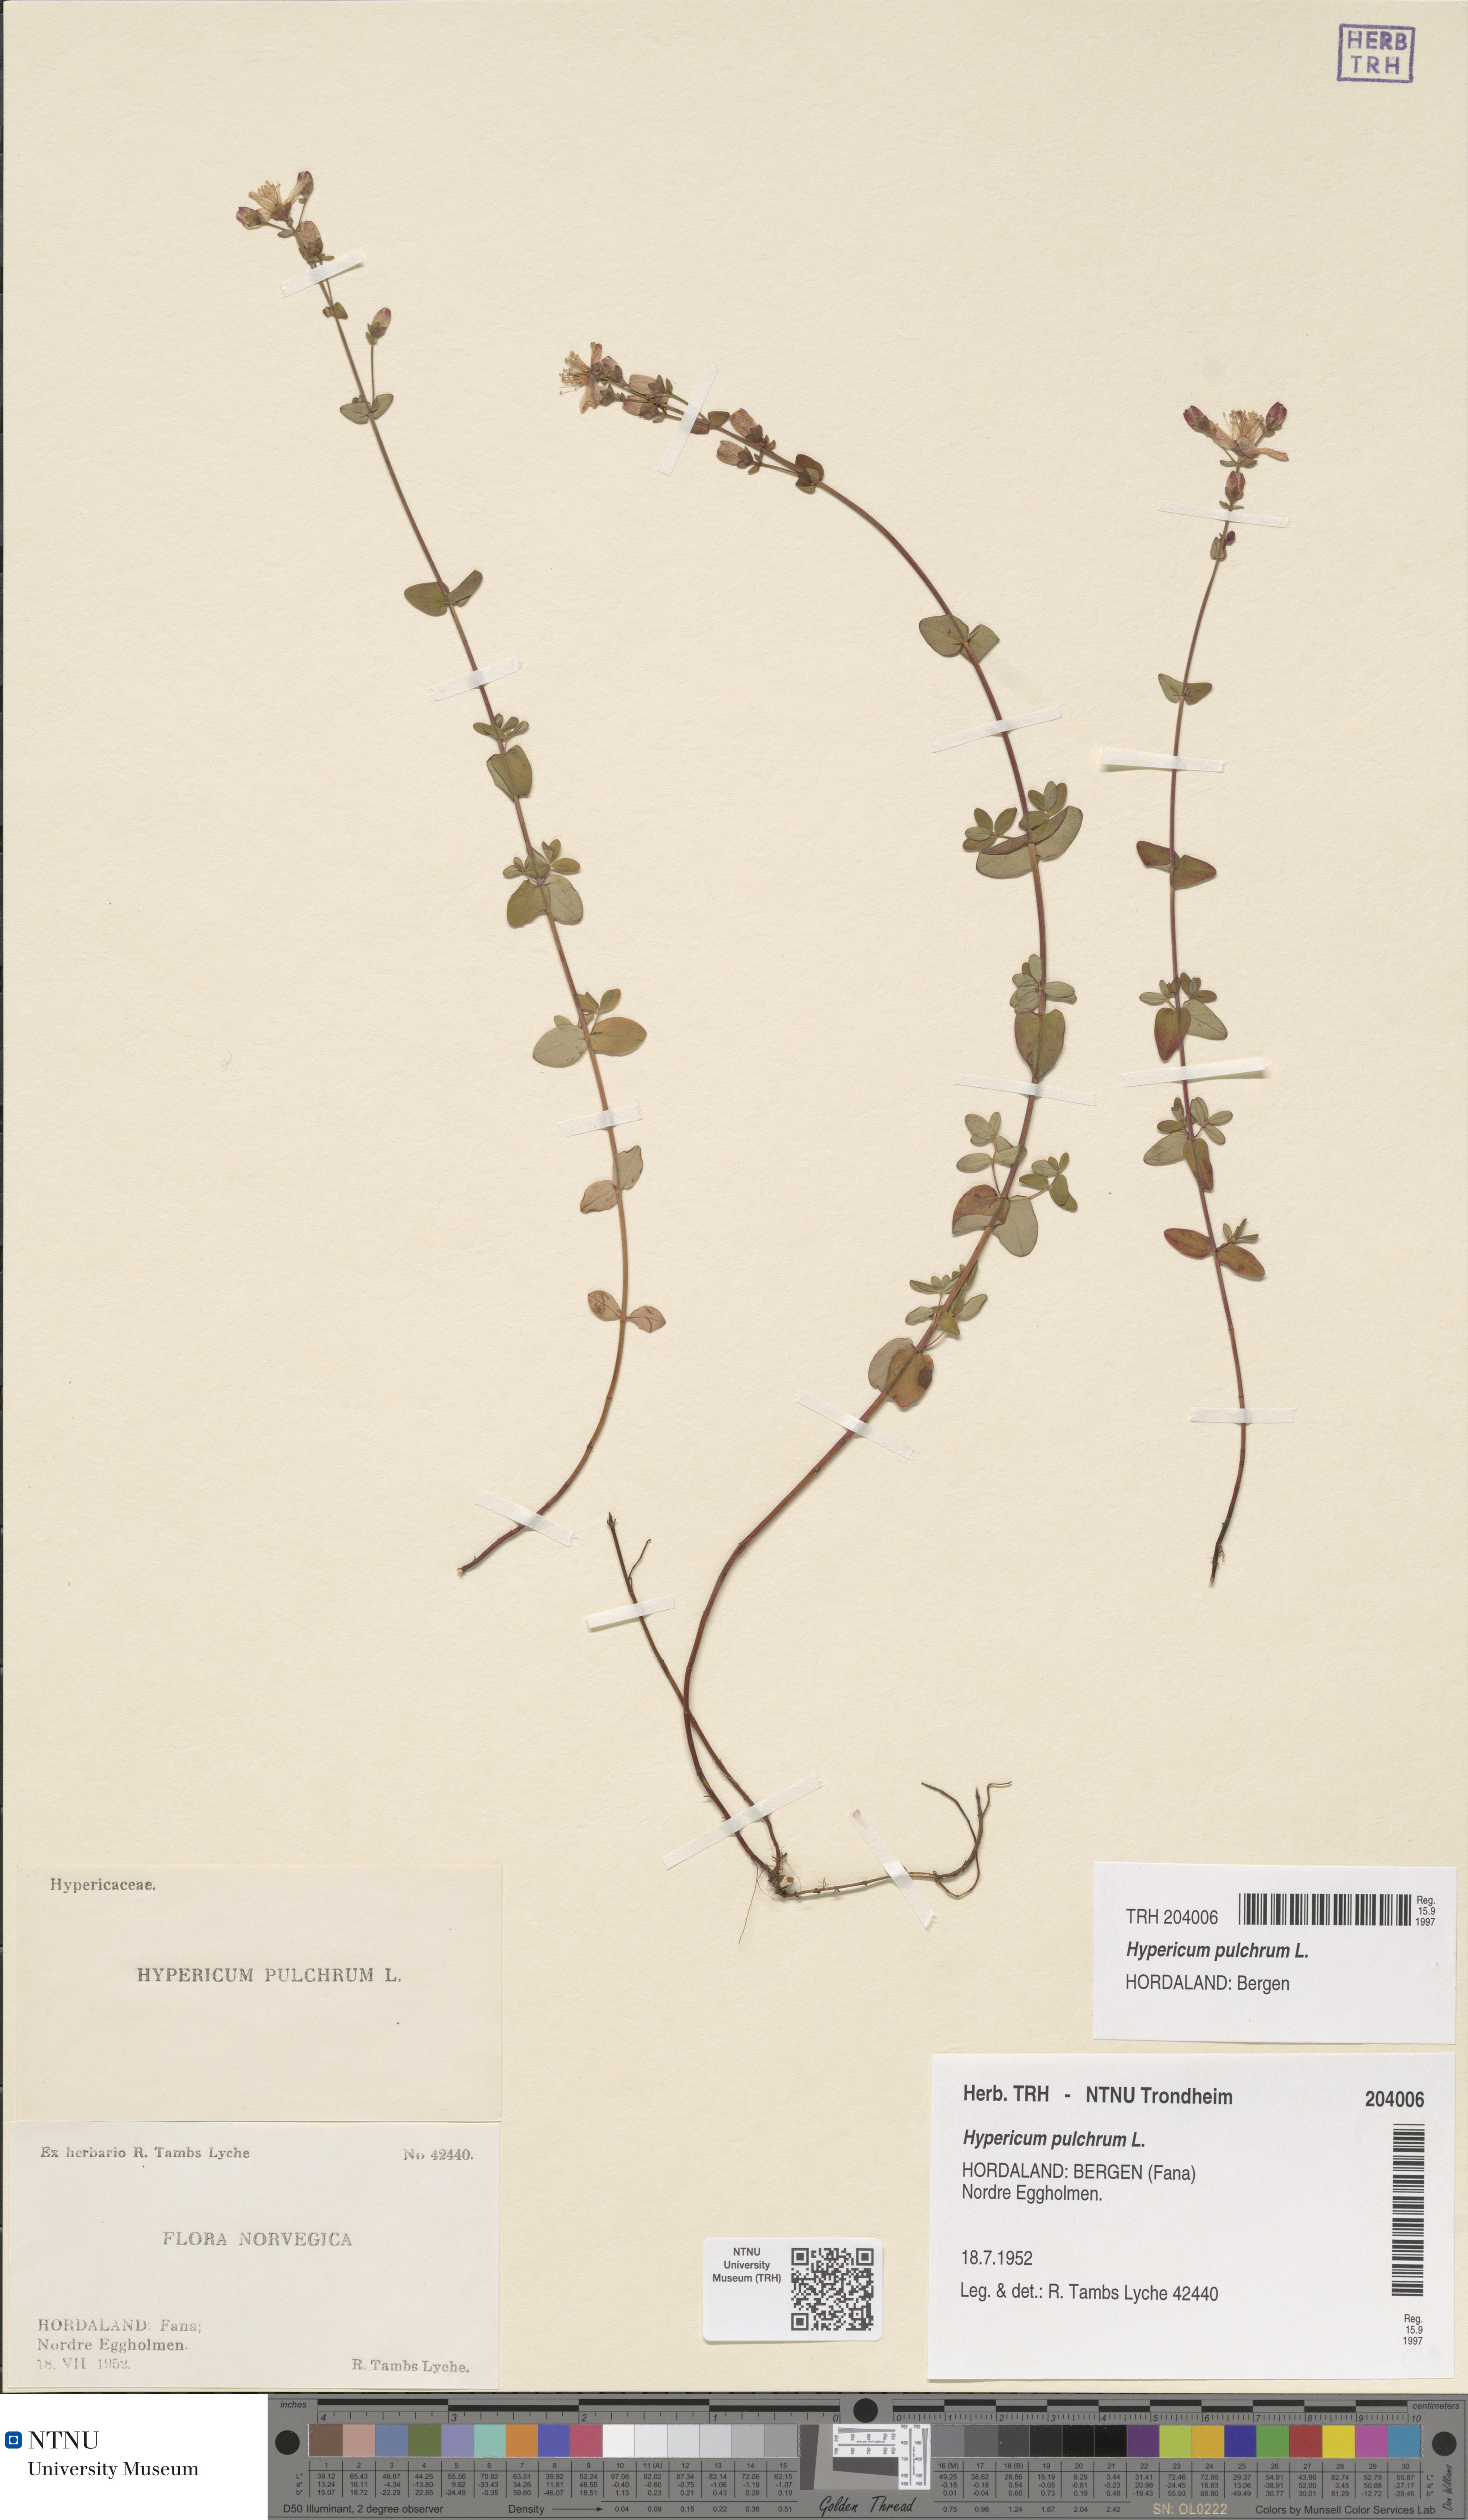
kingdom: Plantae
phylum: Tracheophyta
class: Magnoliopsida
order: Malpighiales
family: Hypericaceae
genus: Hypericum
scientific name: Hypericum pulchrum
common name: Slender st. john's-wort
